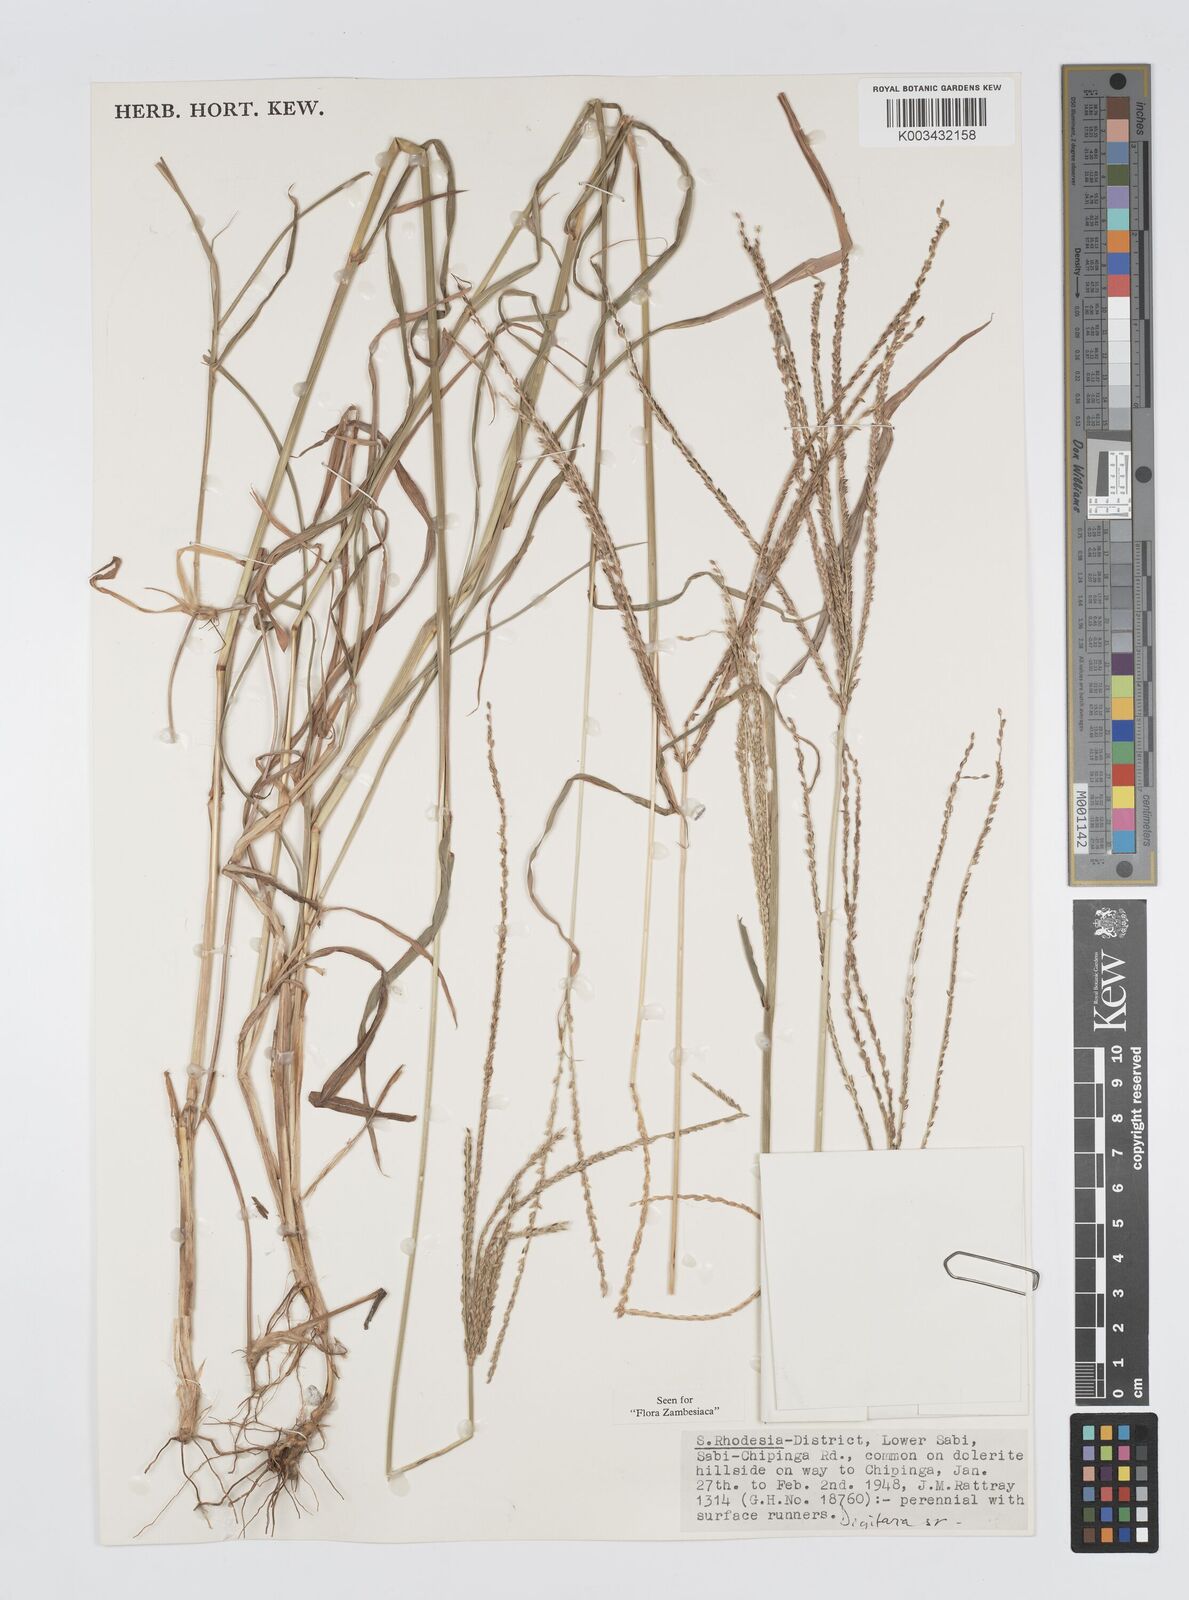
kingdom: Plantae
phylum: Tracheophyta
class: Liliopsida
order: Poales
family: Poaceae
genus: Digitaria
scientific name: Digitaria milanjiana
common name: Madagascar crabgrass
